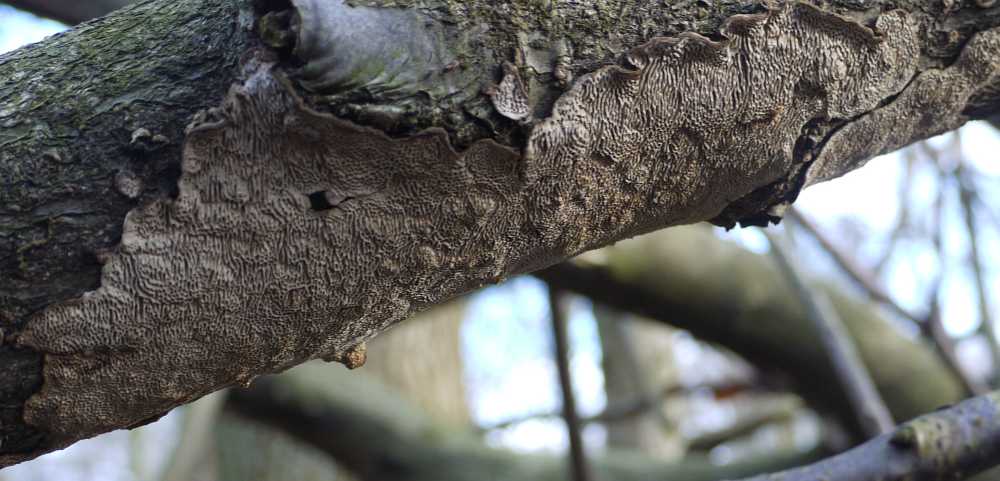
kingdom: Fungi
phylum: Basidiomycota
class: Agaricomycetes
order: Polyporales
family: Polyporaceae
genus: Podofomes
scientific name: Podofomes mollis
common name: blød begporesvamp
